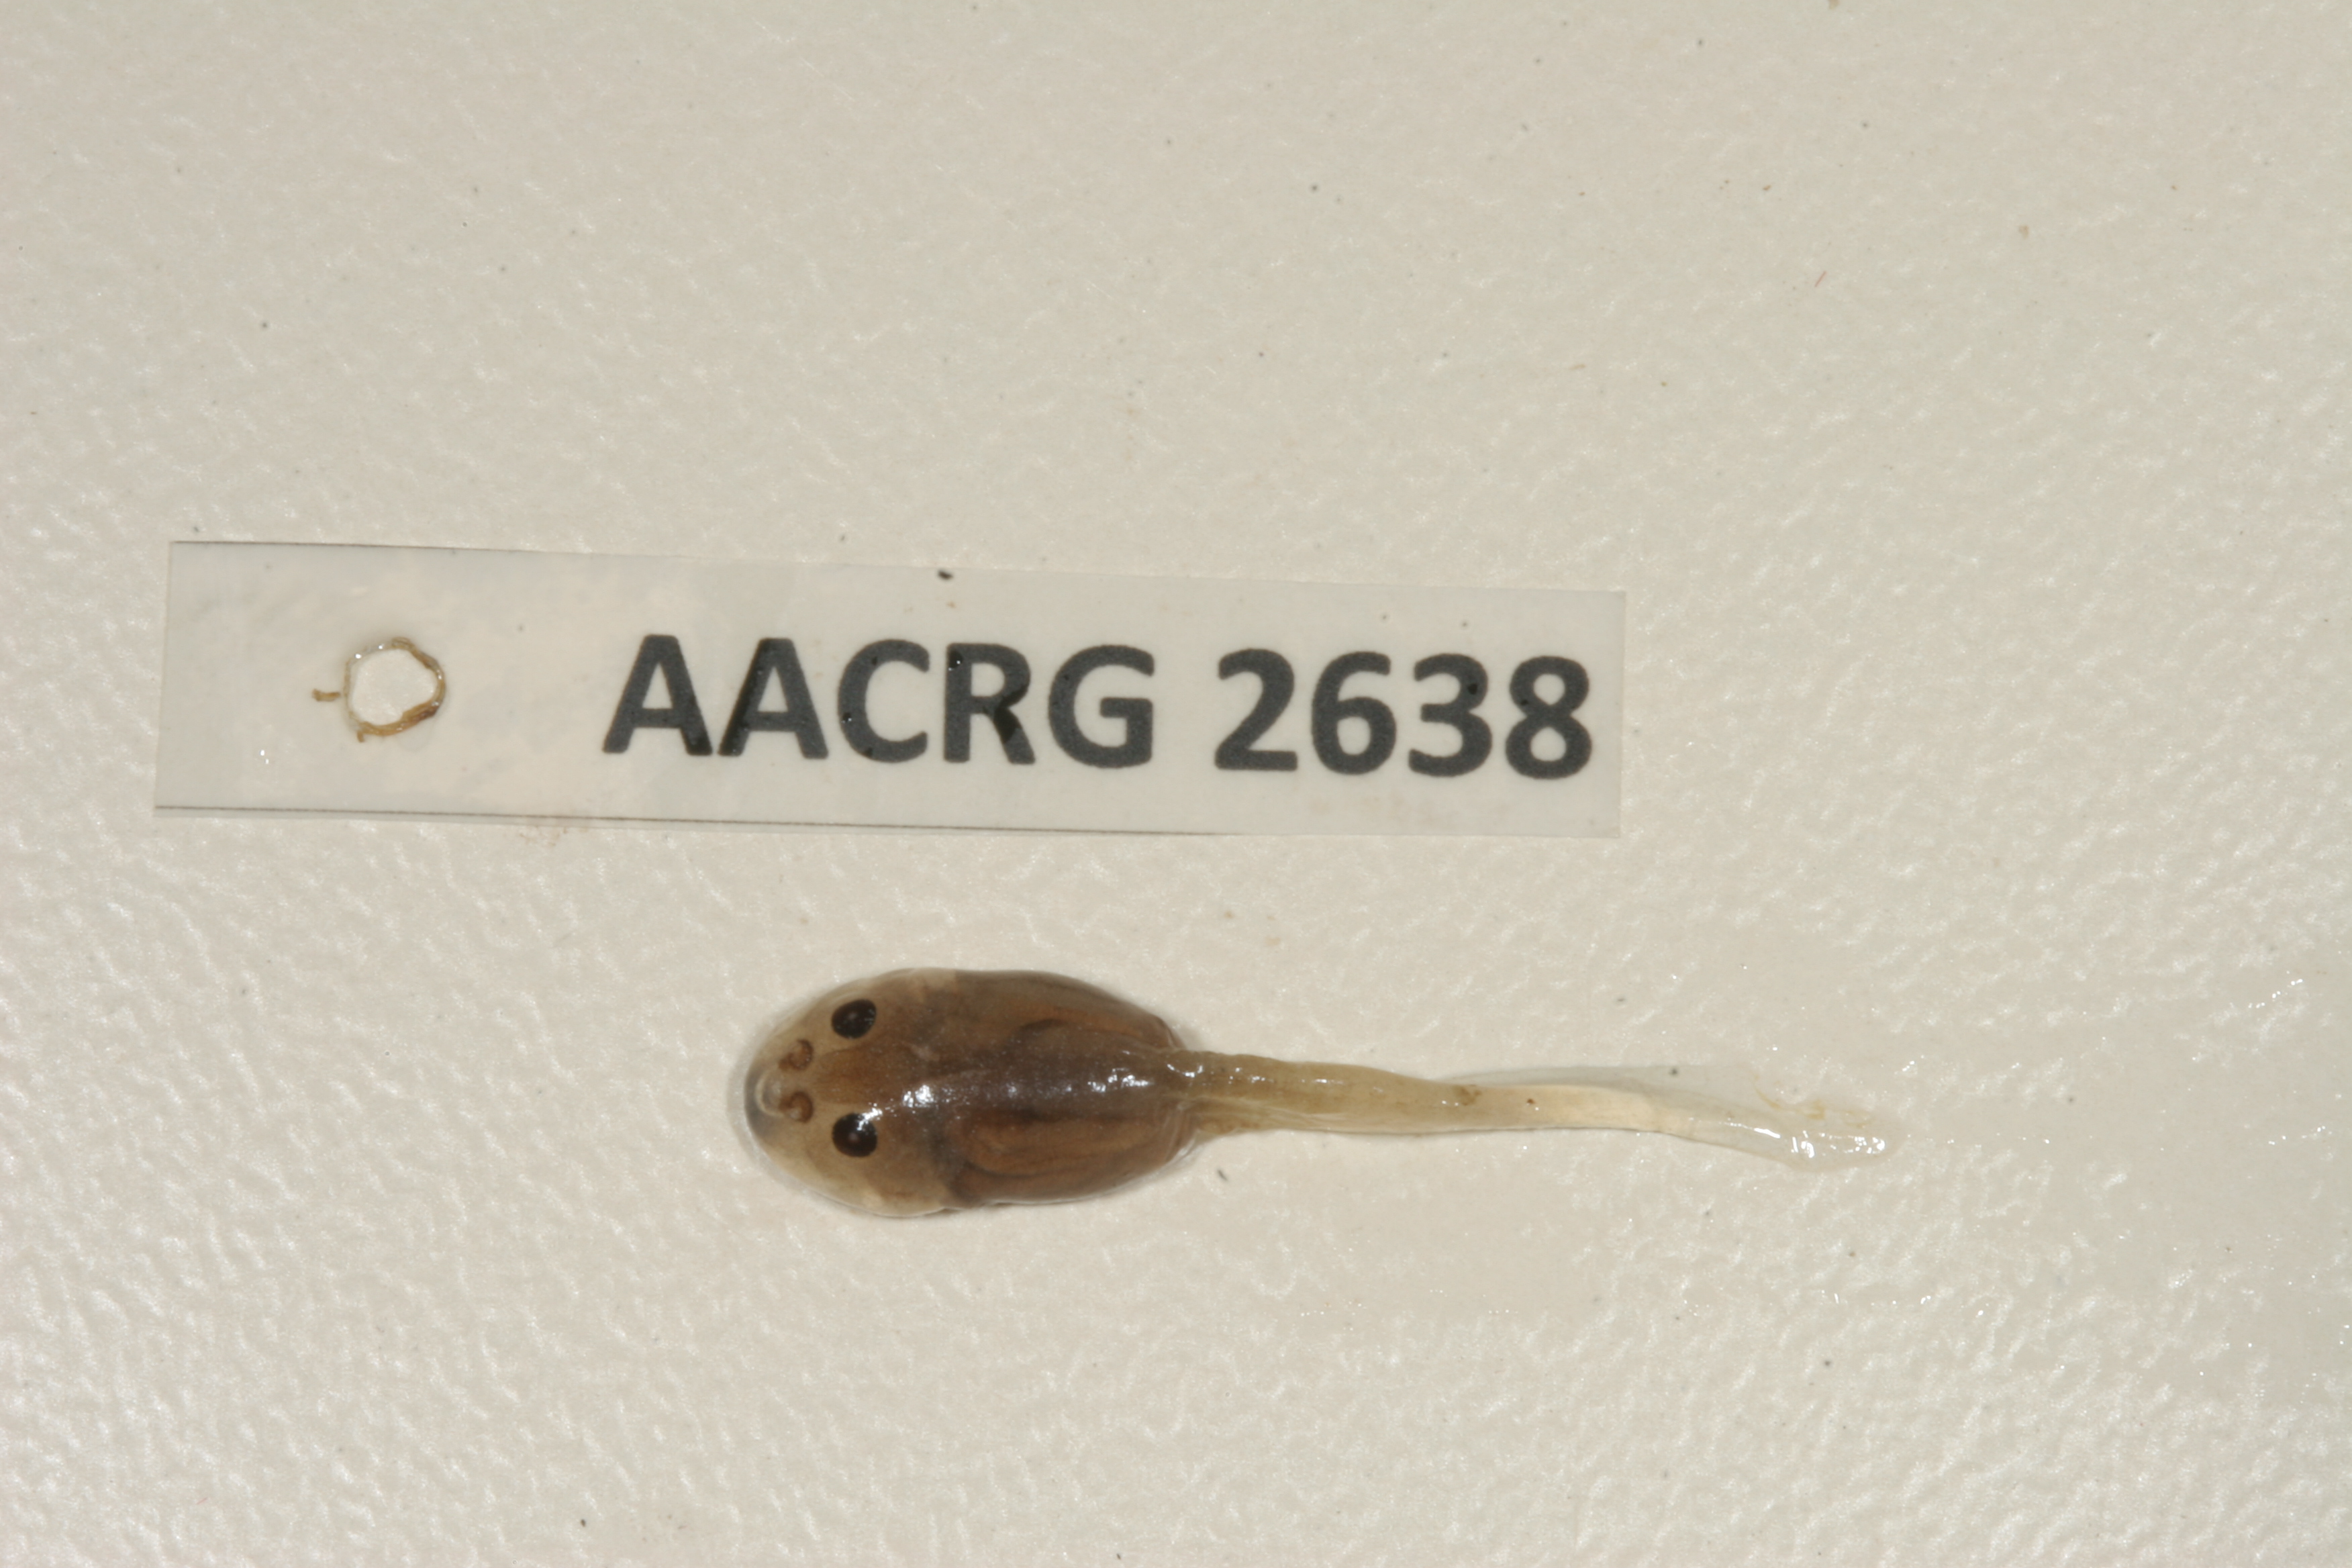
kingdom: Animalia
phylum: Chordata
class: Amphibia
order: Anura
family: Pyxicephalidae
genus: Strongylopus
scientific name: Strongylopus grayii
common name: Gray's stream frog
